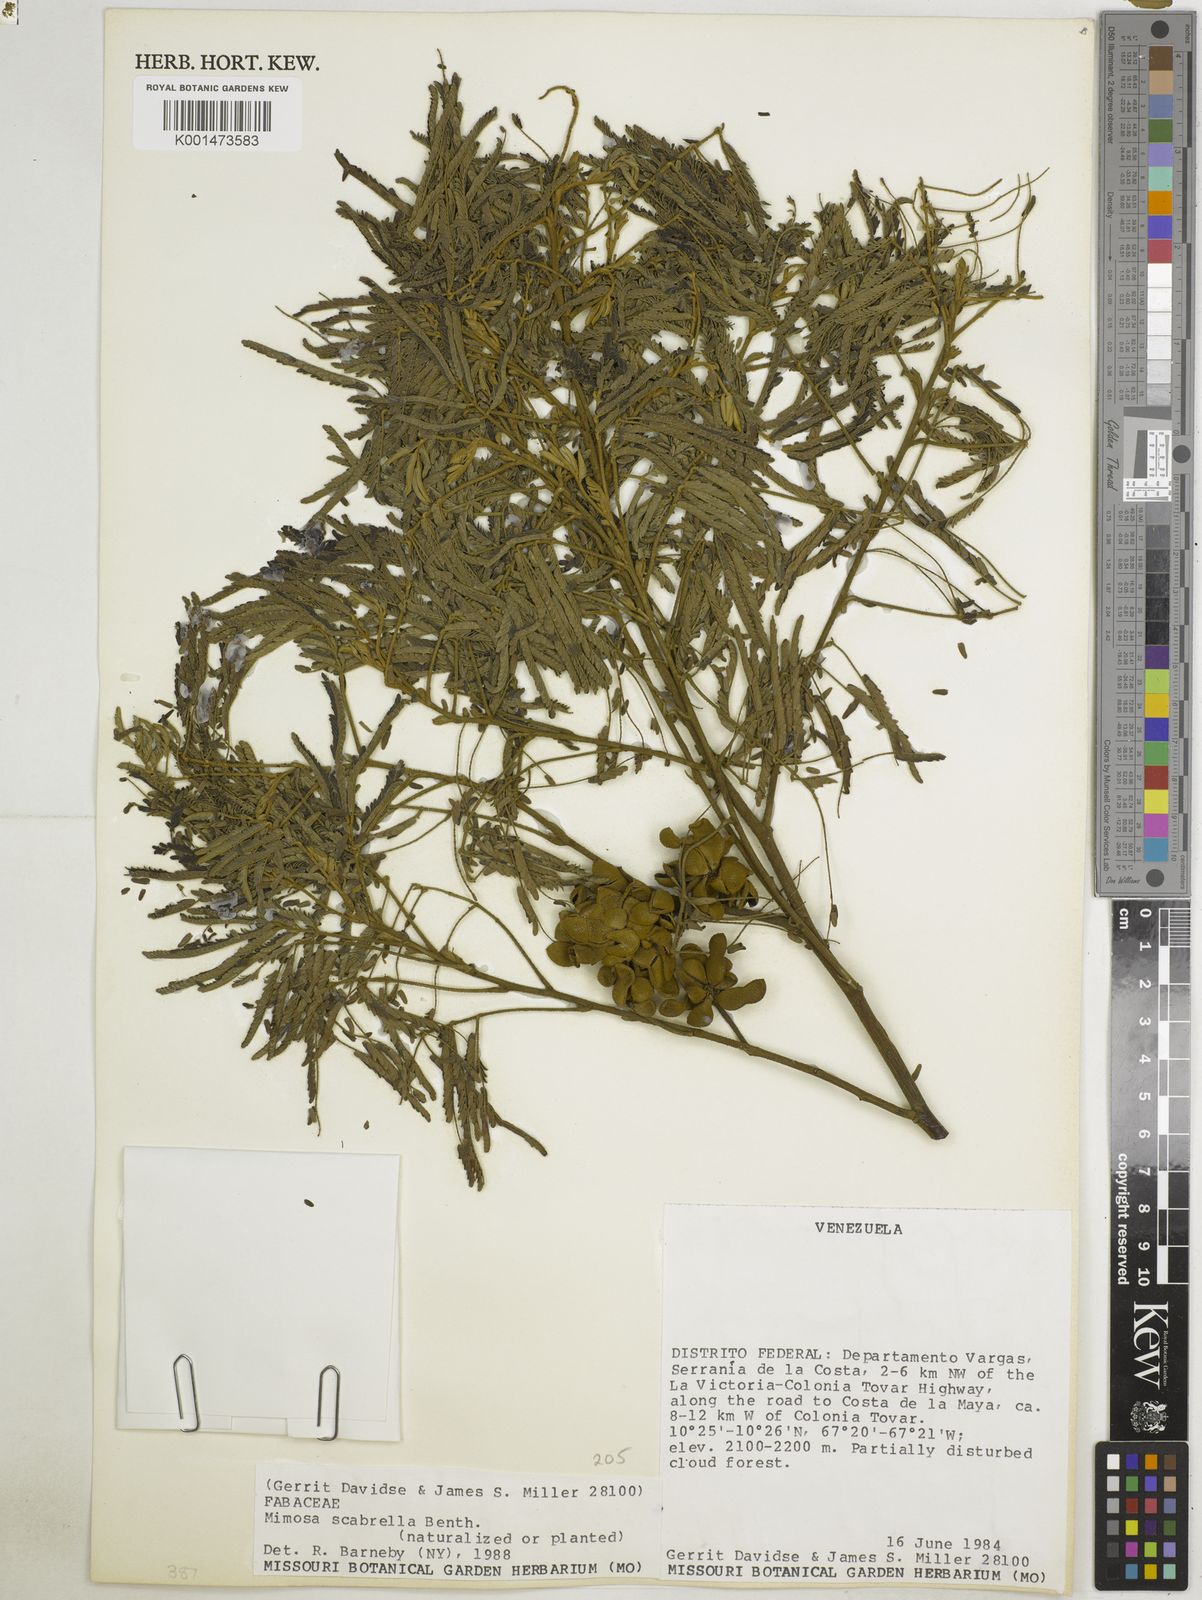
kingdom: Plantae
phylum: Tracheophyta
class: Magnoliopsida
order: Fabales
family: Fabaceae
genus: Mimosa
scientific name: Mimosa scabrella
